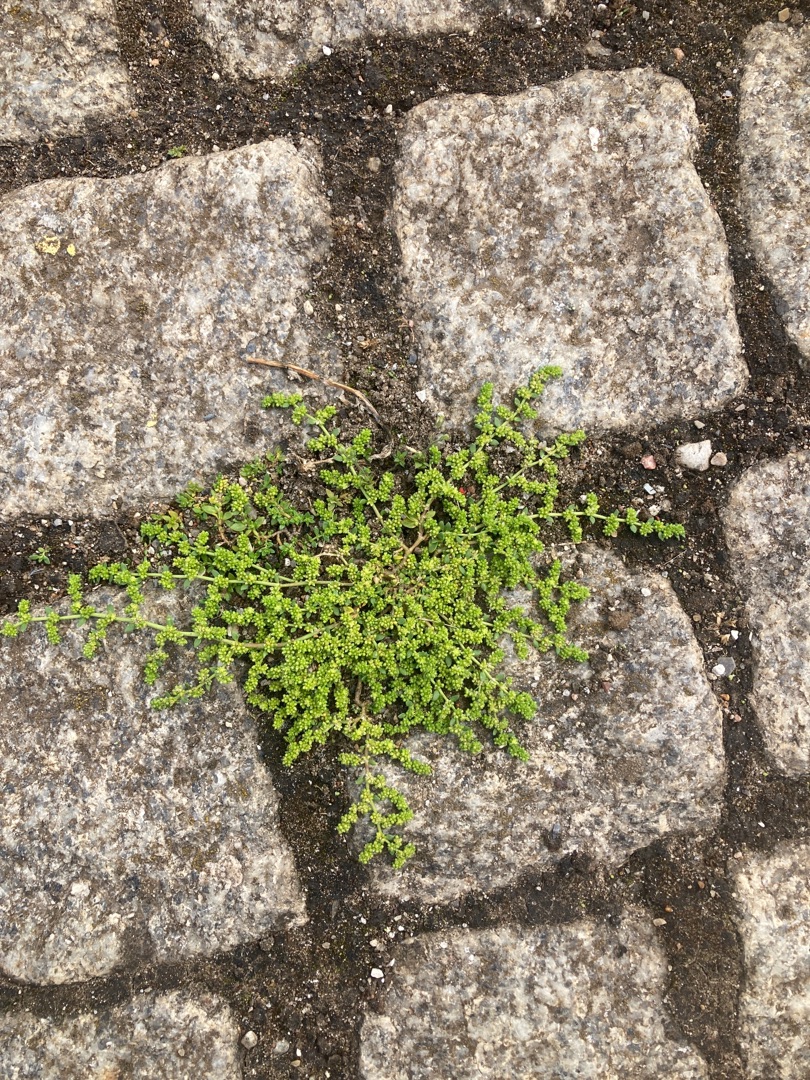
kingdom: Plantae
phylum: Tracheophyta
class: Magnoliopsida
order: Caryophyllales
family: Caryophyllaceae
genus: Herniaria
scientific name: Herniaria glabra
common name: Brudurt
